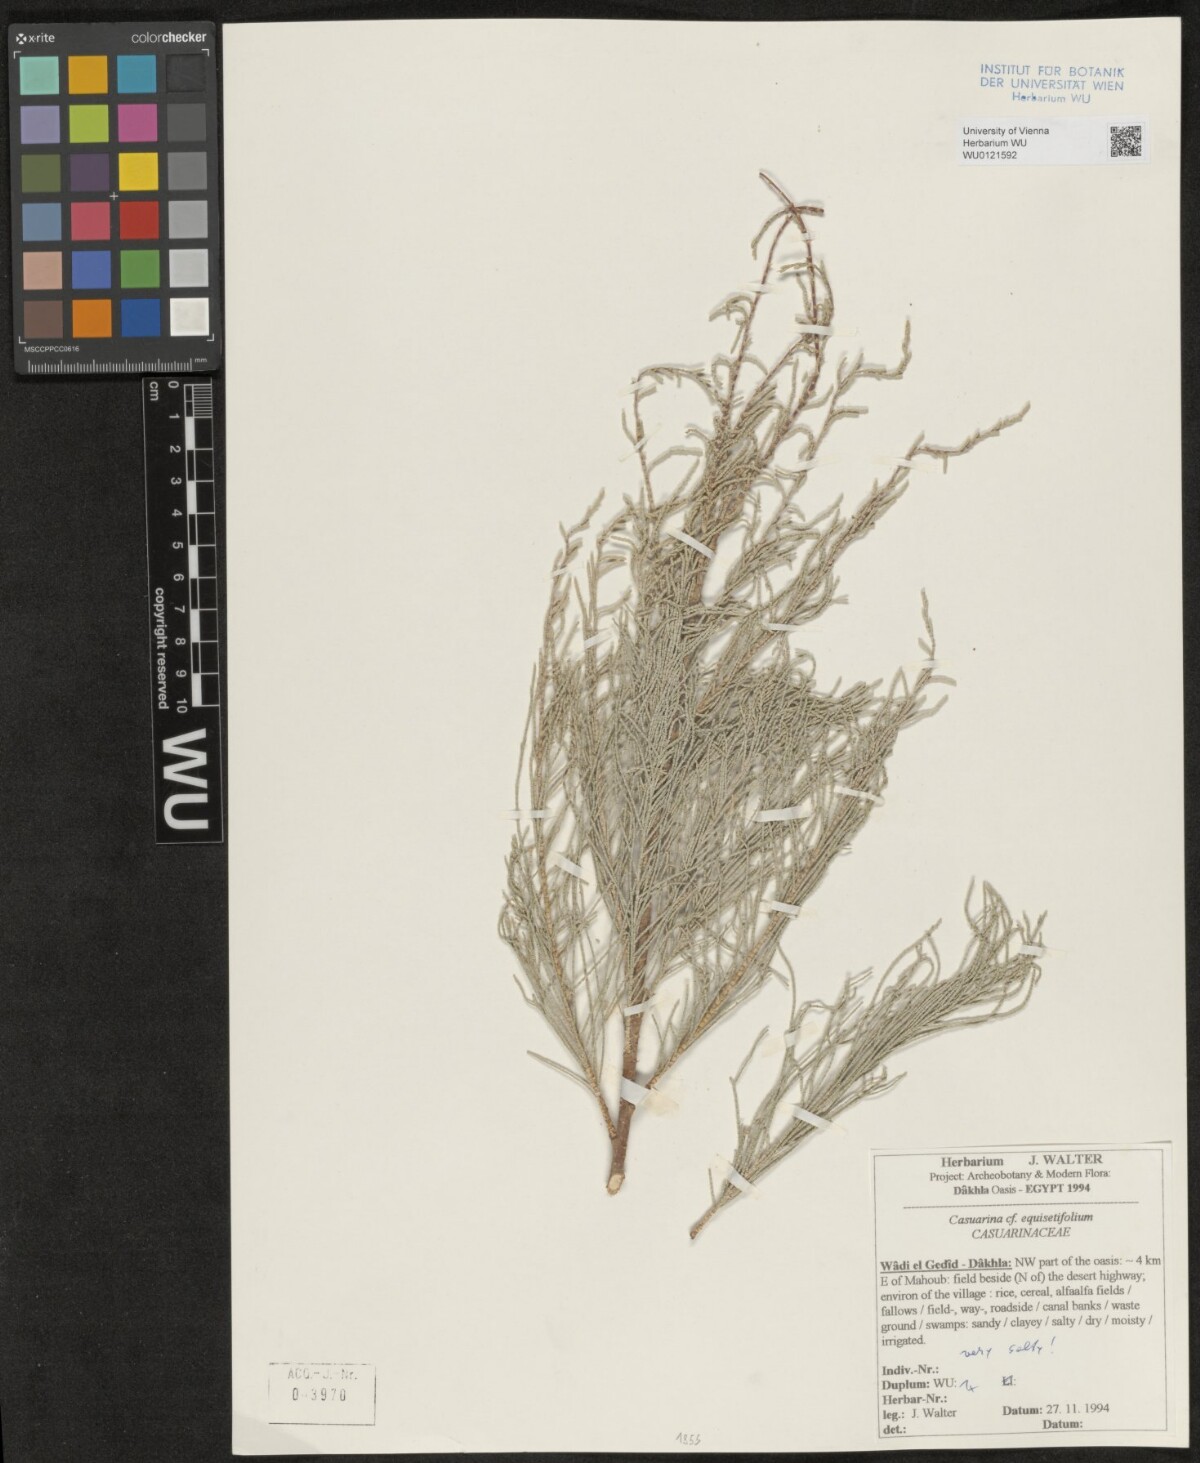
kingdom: Plantae
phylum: Tracheophyta
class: Magnoliopsida
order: Fagales
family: Casuarinaceae
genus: Casuarina
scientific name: Casuarina equisetifolia
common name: Beach sheoak
